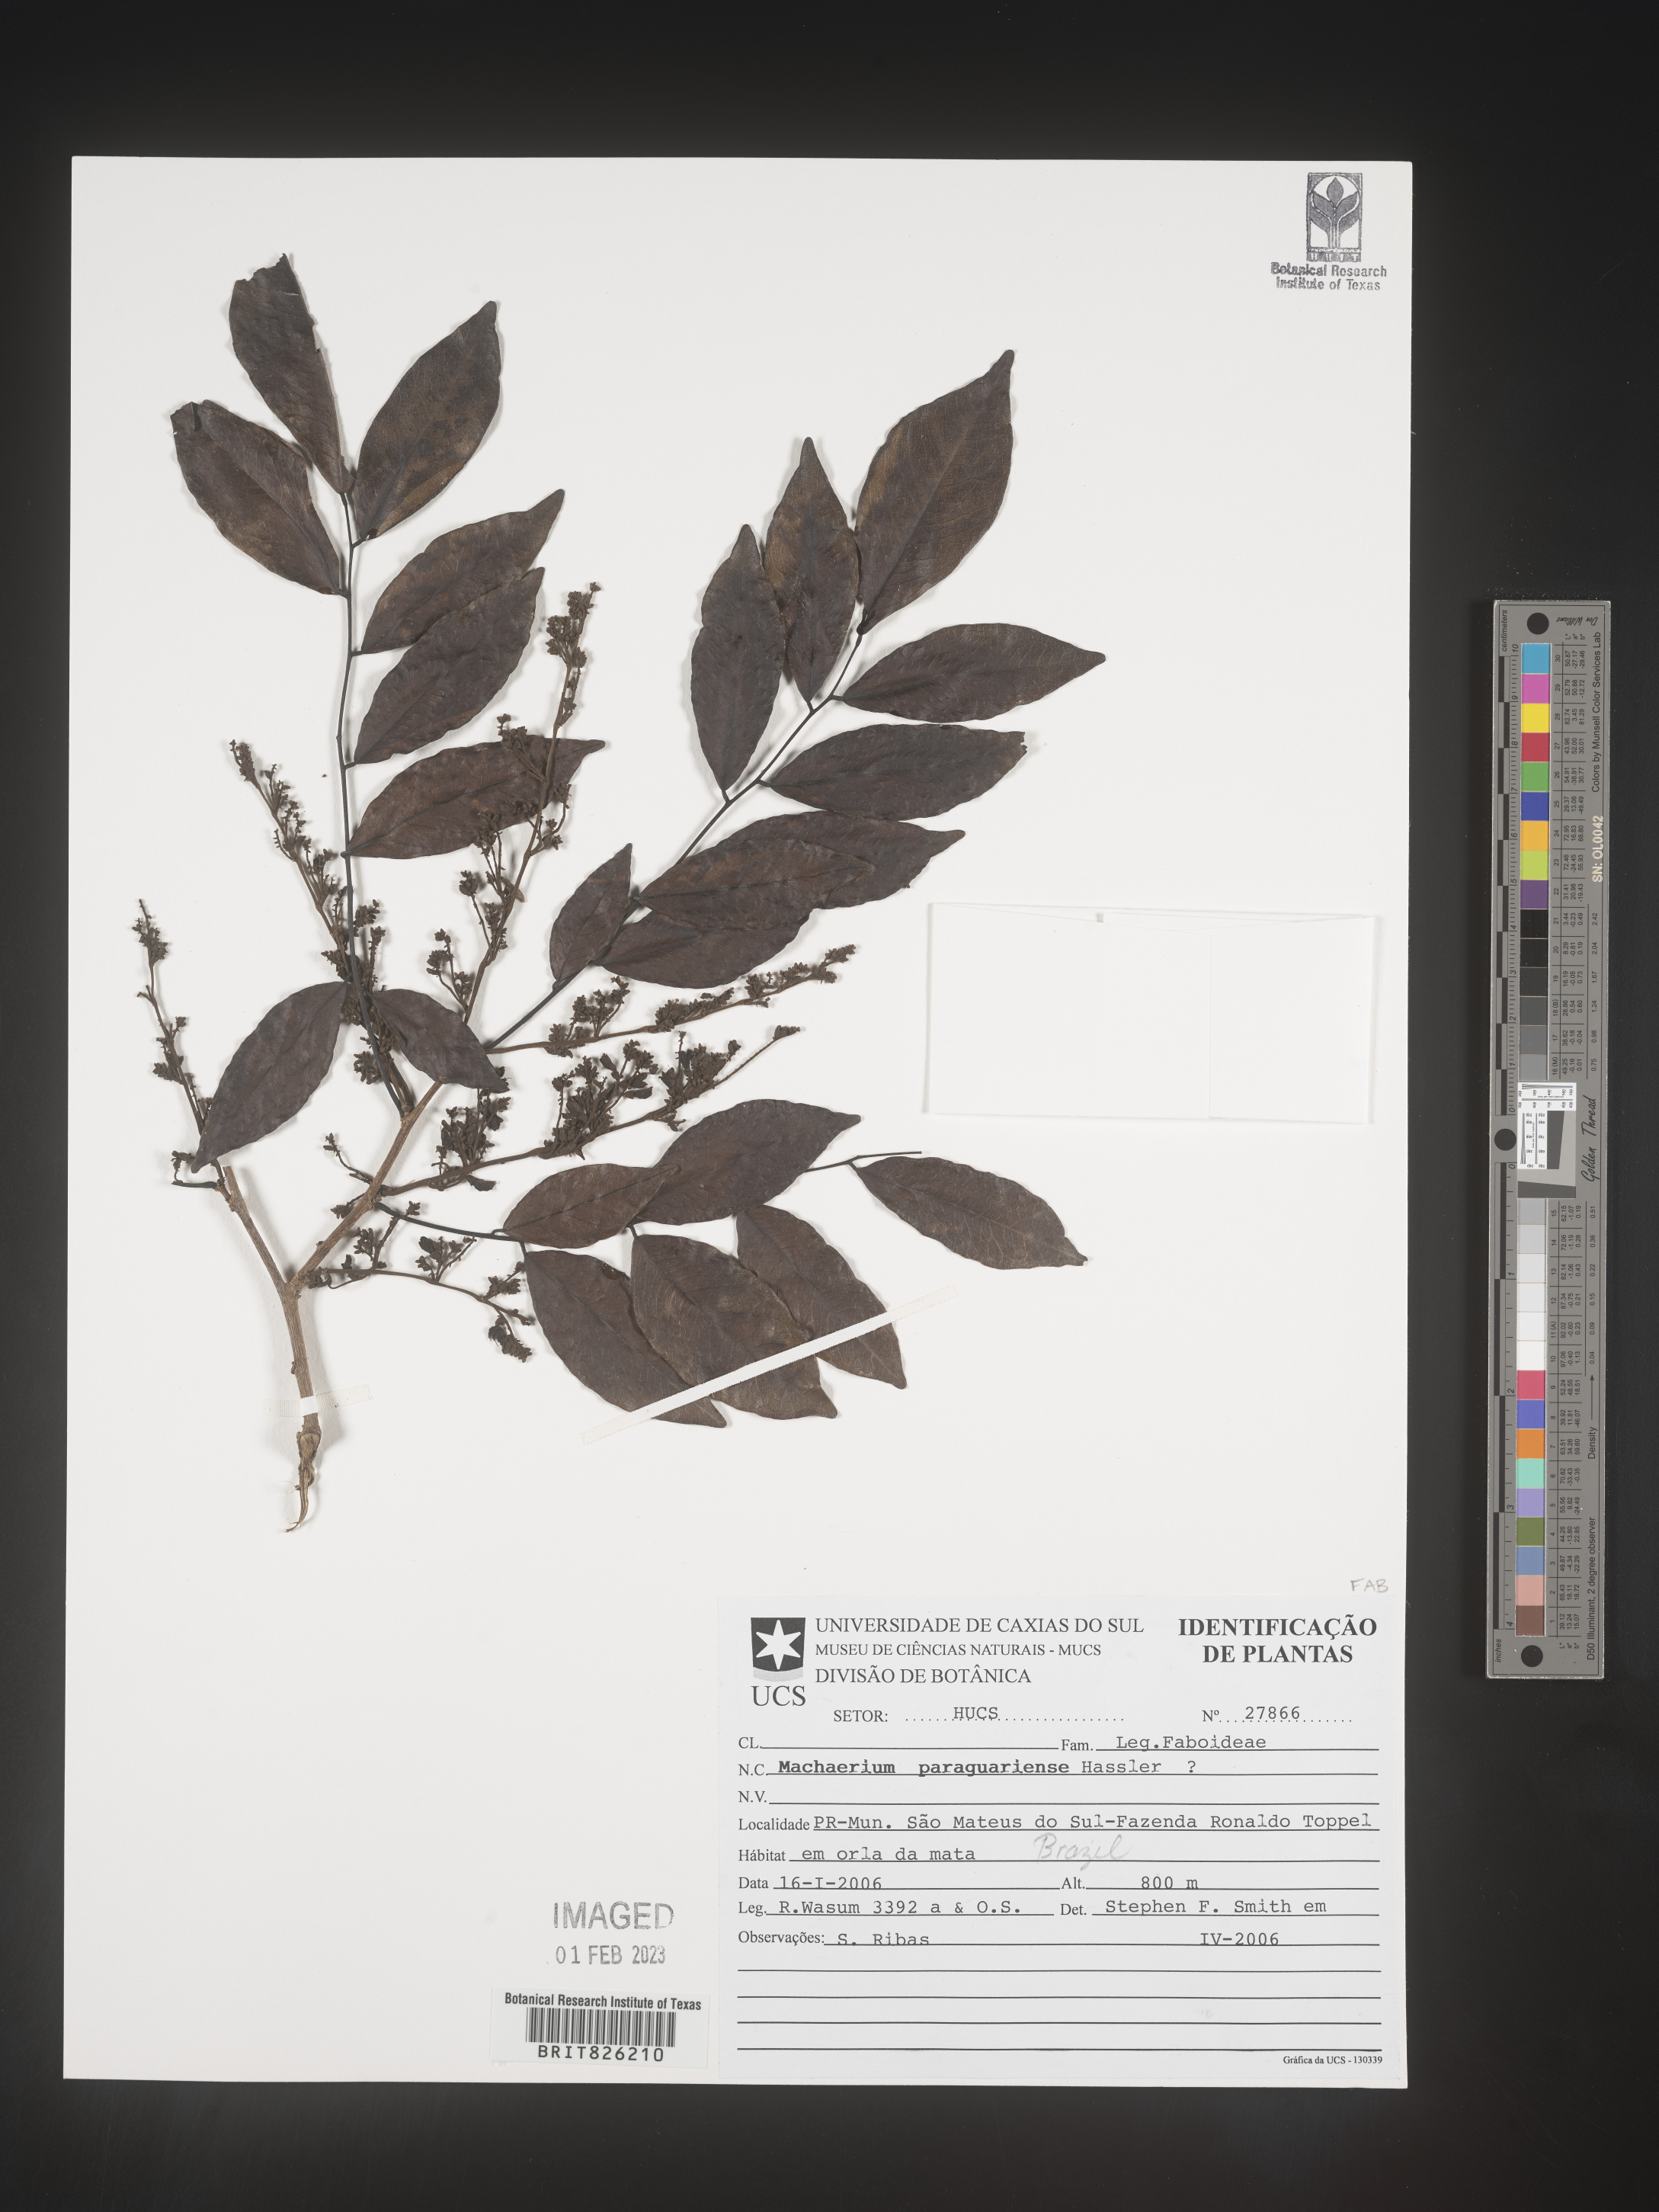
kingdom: Plantae
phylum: Tracheophyta
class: Magnoliopsida
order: Fabales
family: Fabaceae
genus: Machaerium
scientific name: Machaerium
